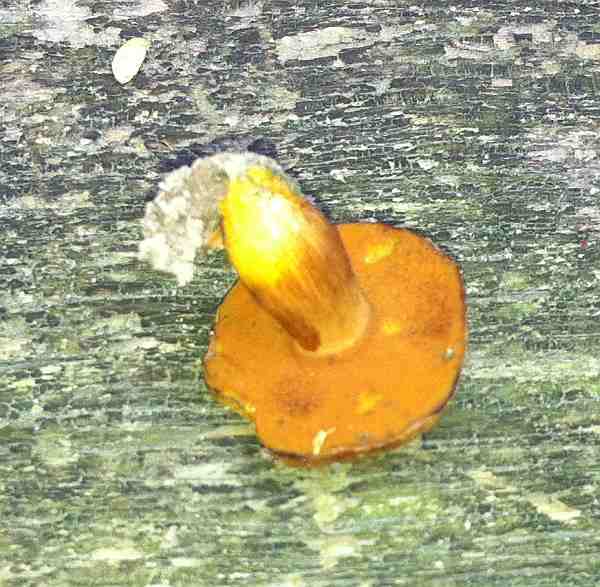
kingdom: Fungi
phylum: Basidiomycota
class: Agaricomycetes
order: Boletales
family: Boletaceae
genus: Chalciporus
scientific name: Chalciporus piperatus
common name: peberrørhat
